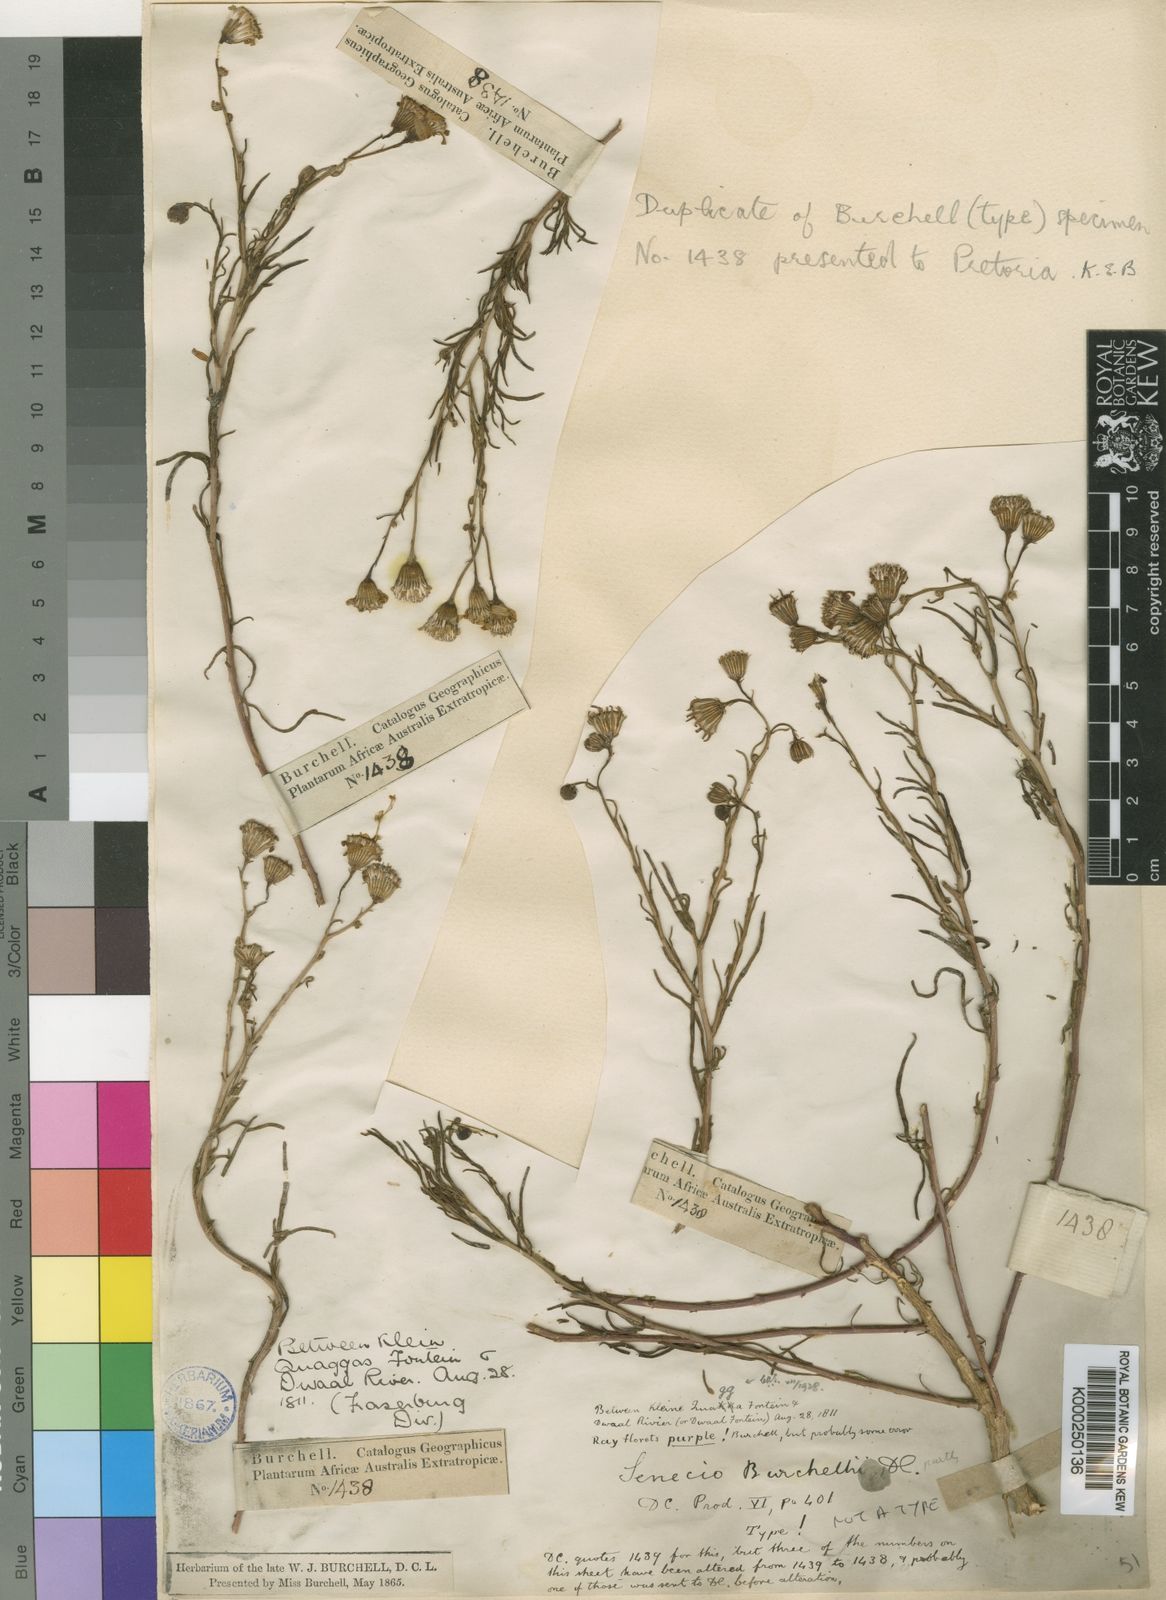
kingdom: Plantae
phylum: Tracheophyta
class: Magnoliopsida
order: Asterales
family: Asteraceae
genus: Senecio
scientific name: Senecio inaequidens
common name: Narrow-leaved ragwort
